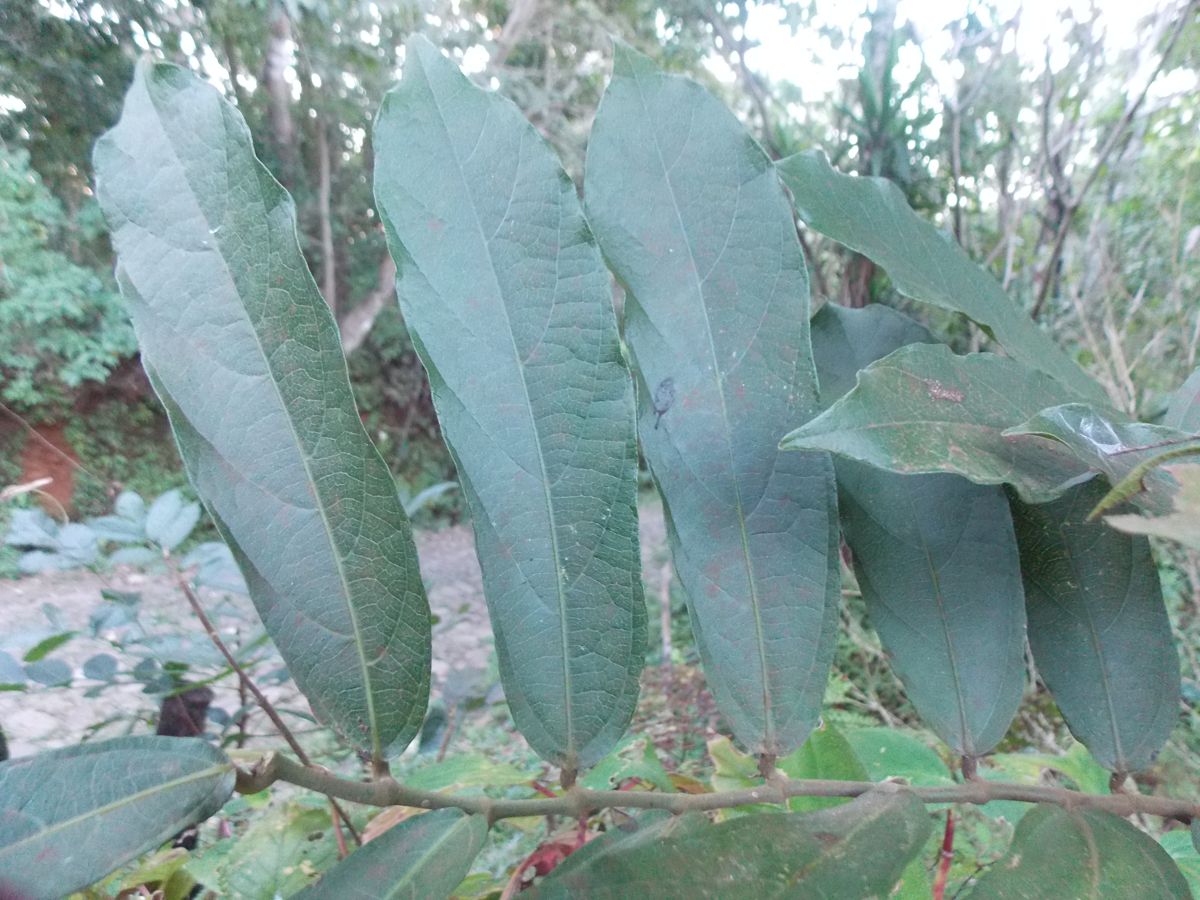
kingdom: Plantae
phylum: Tracheophyta
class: Magnoliopsida
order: Piperales
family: Aristolochiaceae
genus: Isotrema
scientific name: Isotrema arborea
